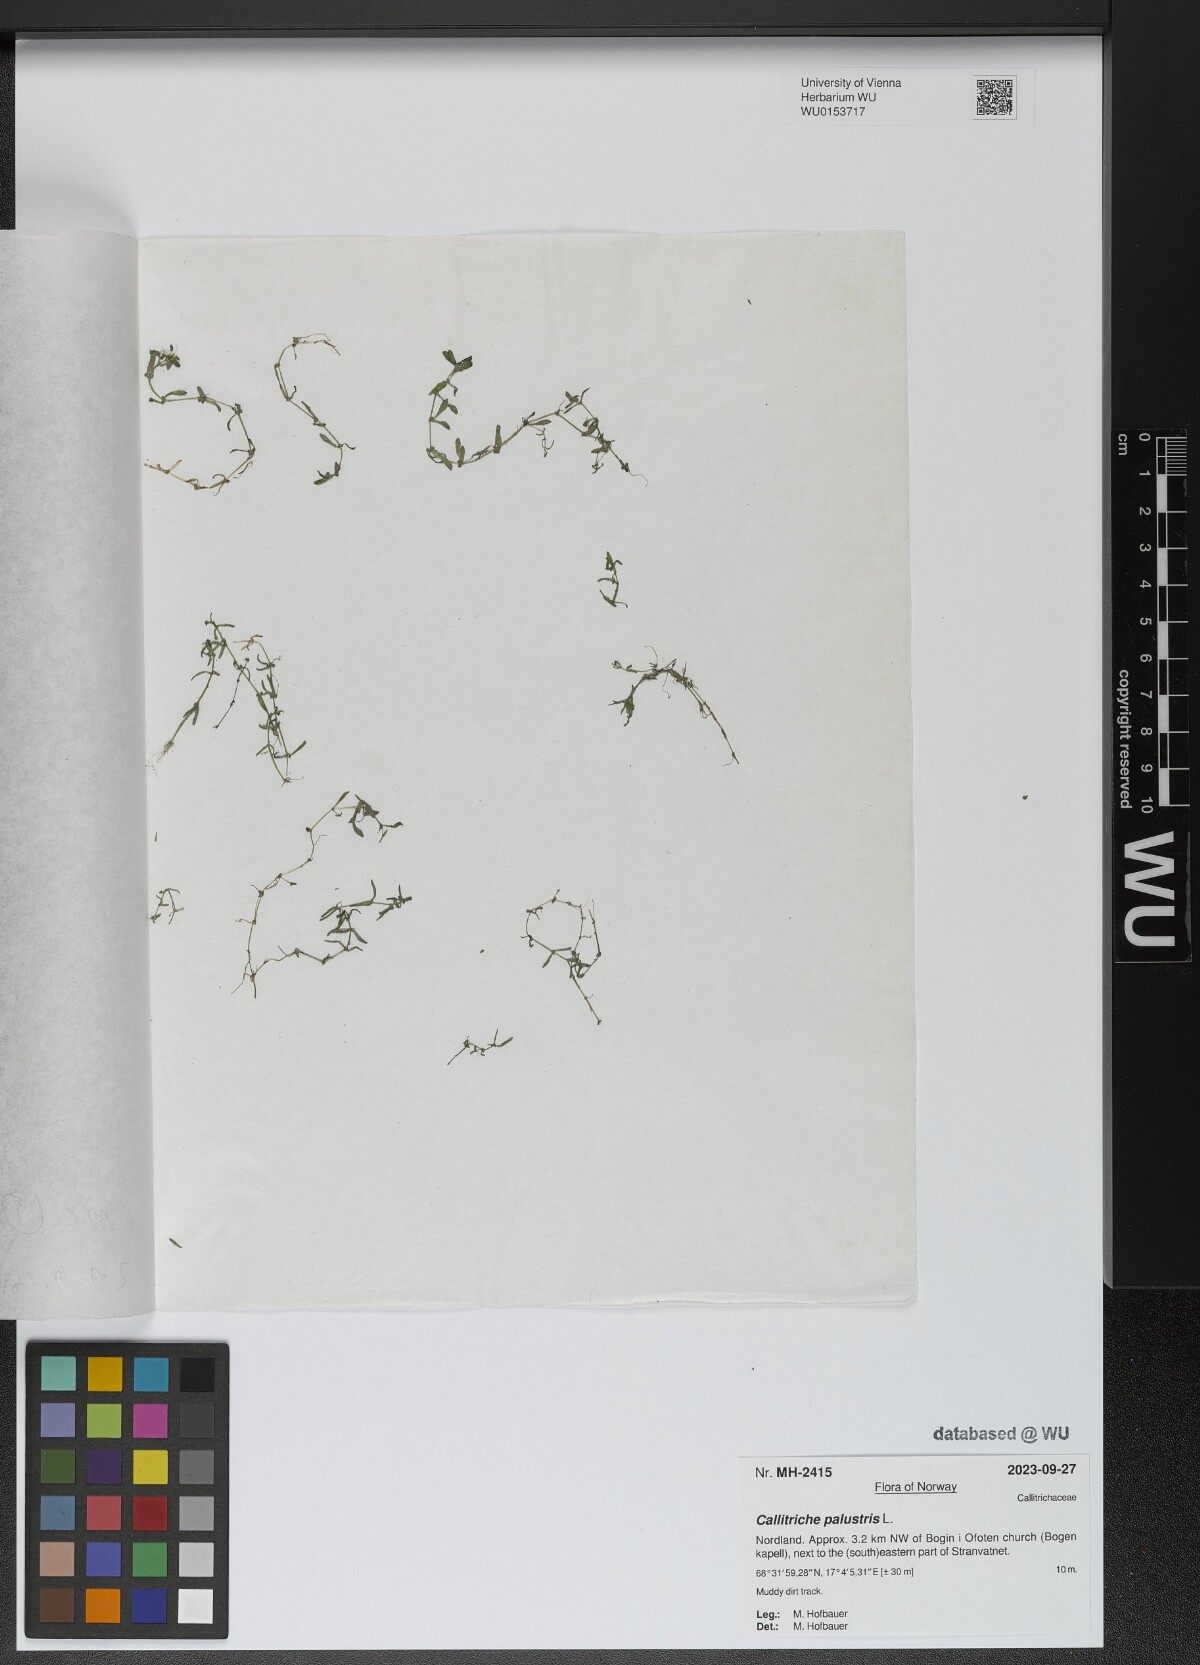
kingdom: Plantae
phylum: Tracheophyta
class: Magnoliopsida
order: Lamiales
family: Plantaginaceae
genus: Callitriche
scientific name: Callitriche palustris
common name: Spring water-starwort
